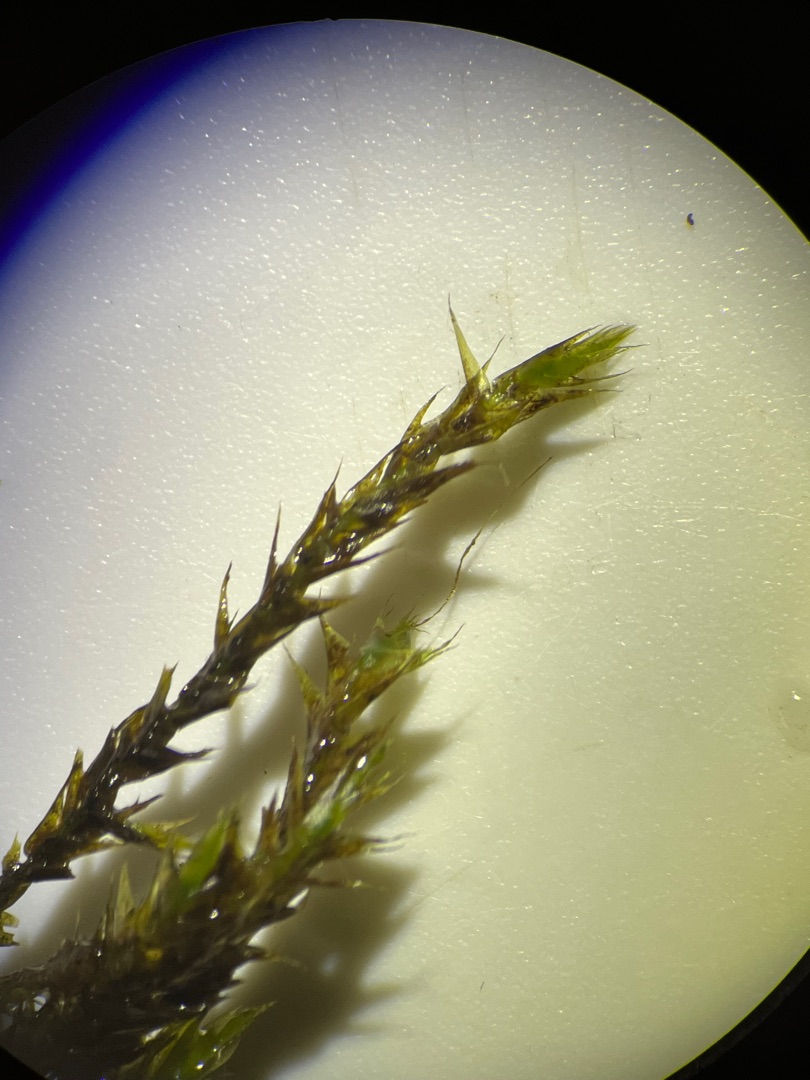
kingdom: Plantae
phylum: Bryophyta
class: Bryopsida
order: Hypnales
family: Amblystegiaceae
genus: Leptodictyum
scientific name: Leptodictyum riparium
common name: Stor pytmos
